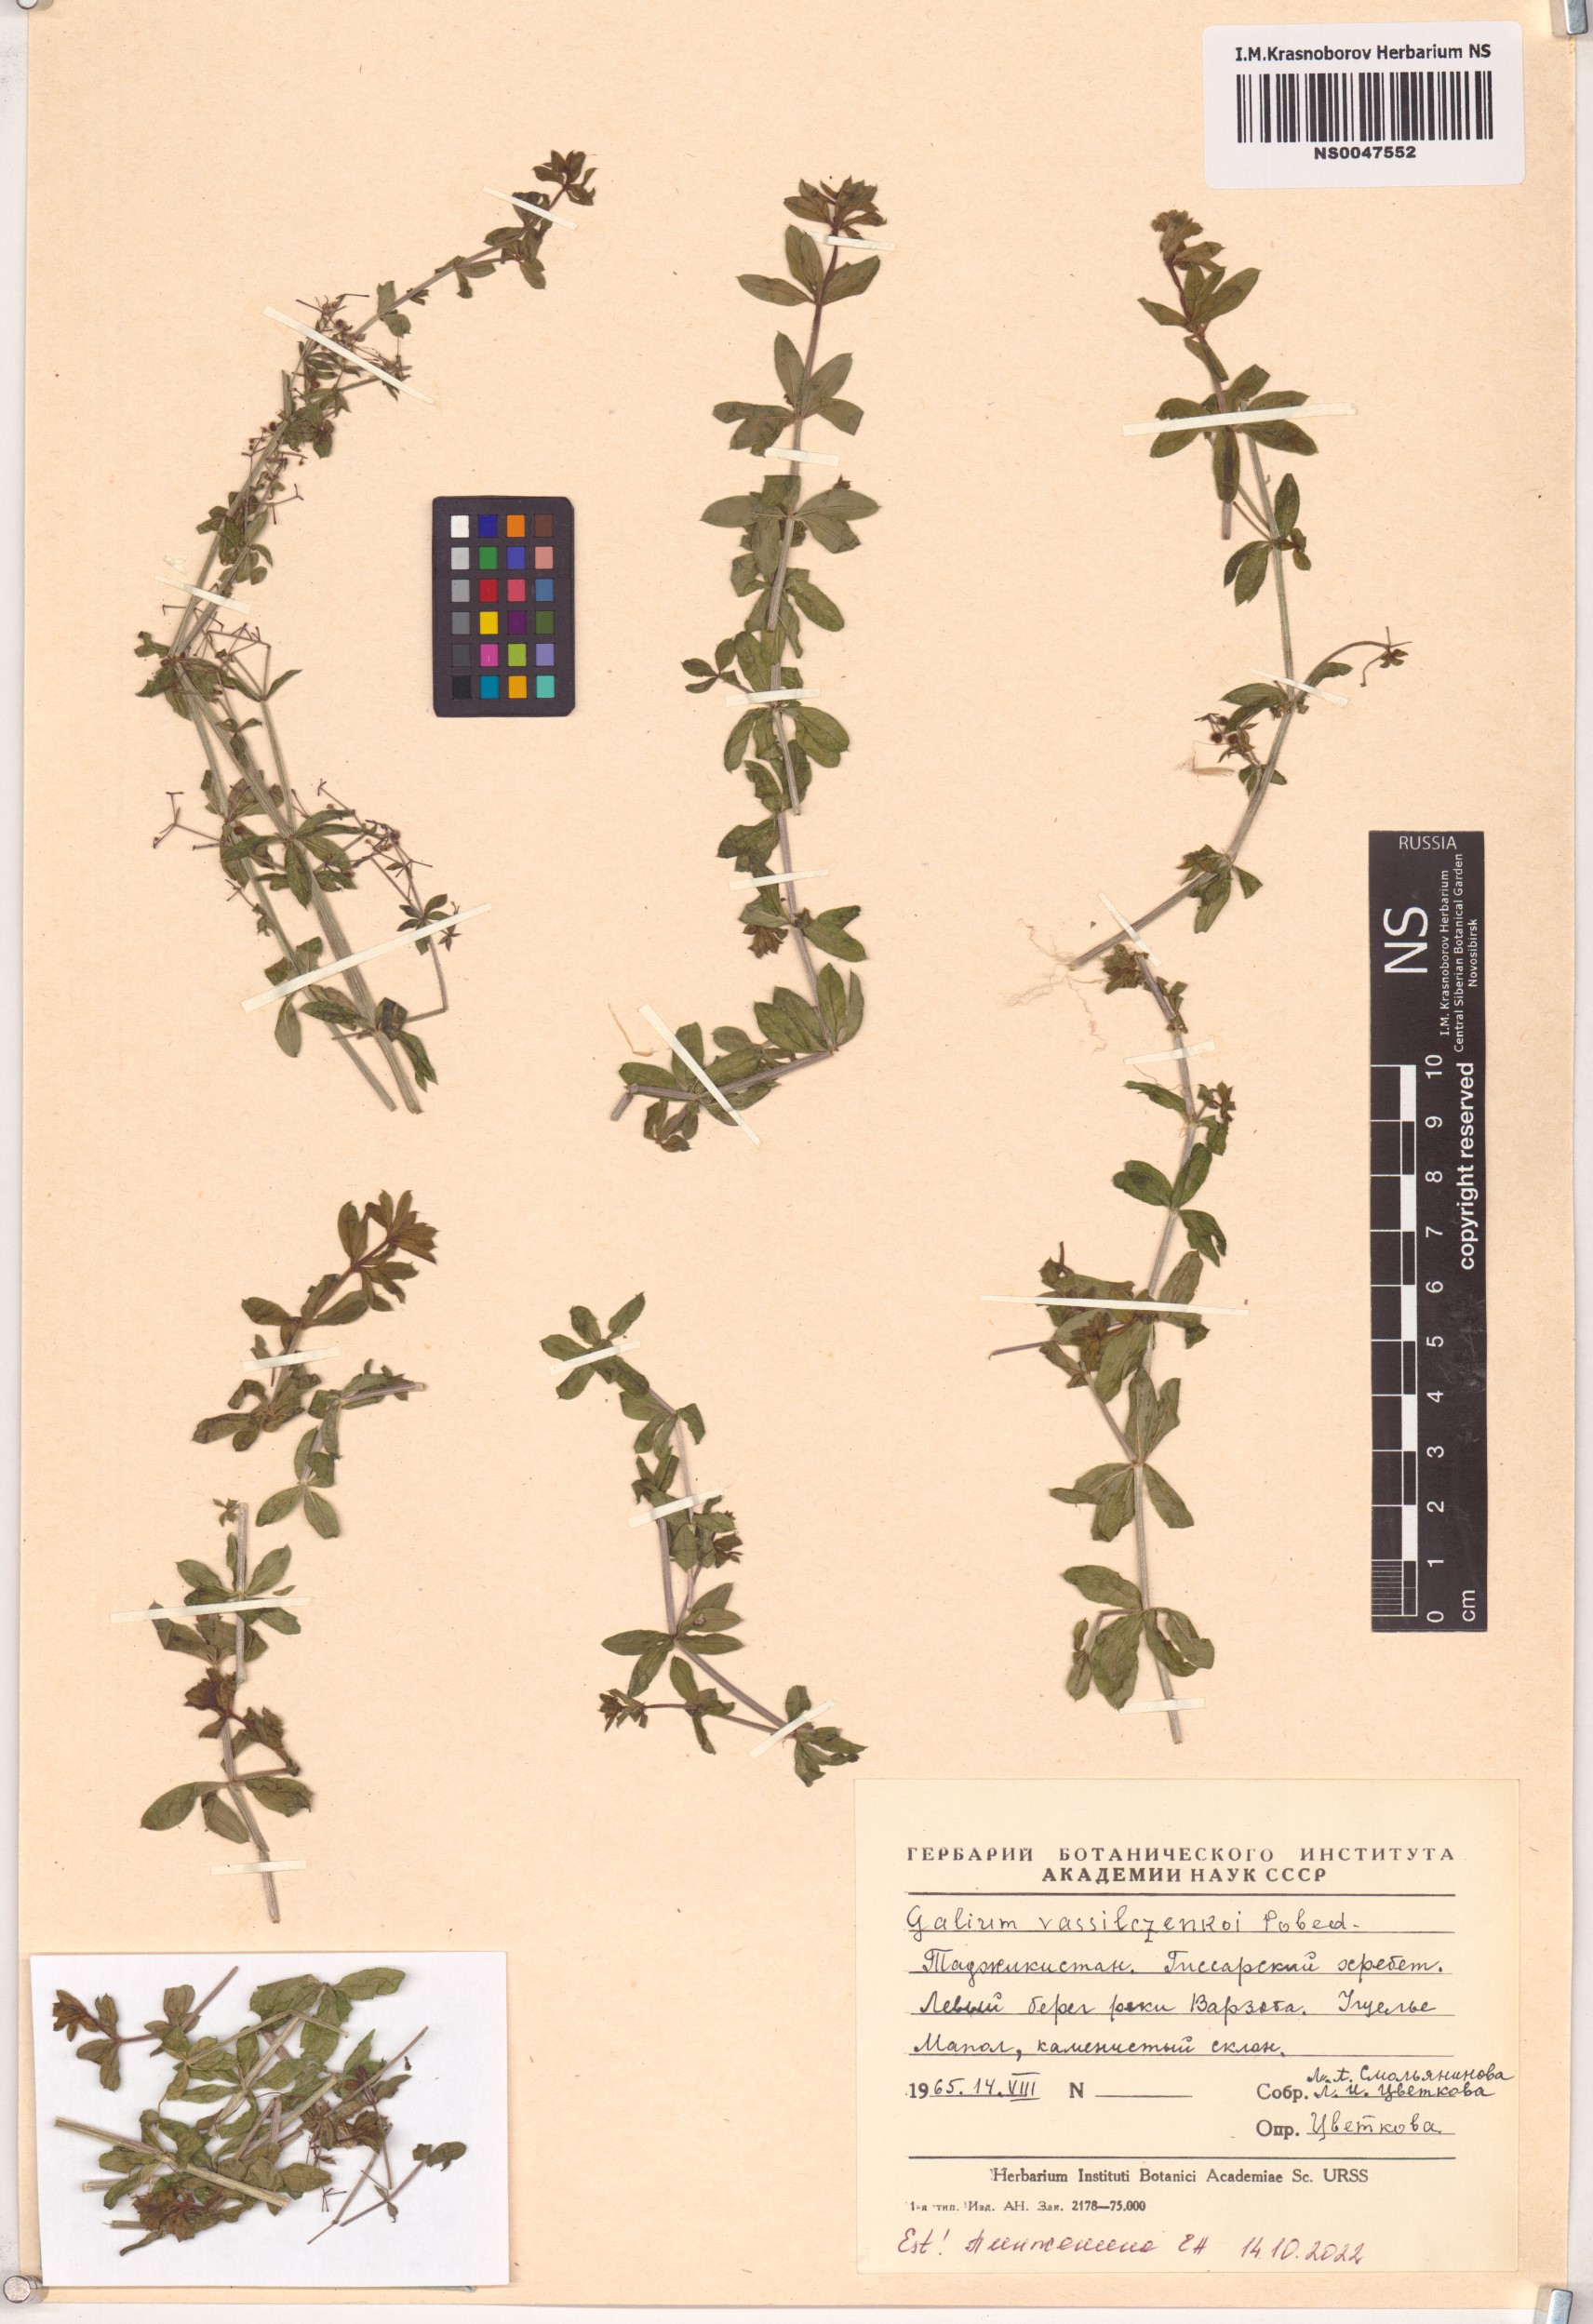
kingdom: Plantae
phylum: Tracheophyta
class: Magnoliopsida
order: Gentianales
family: Rubiaceae
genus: Galium
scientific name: Galium vassilczenkoi
